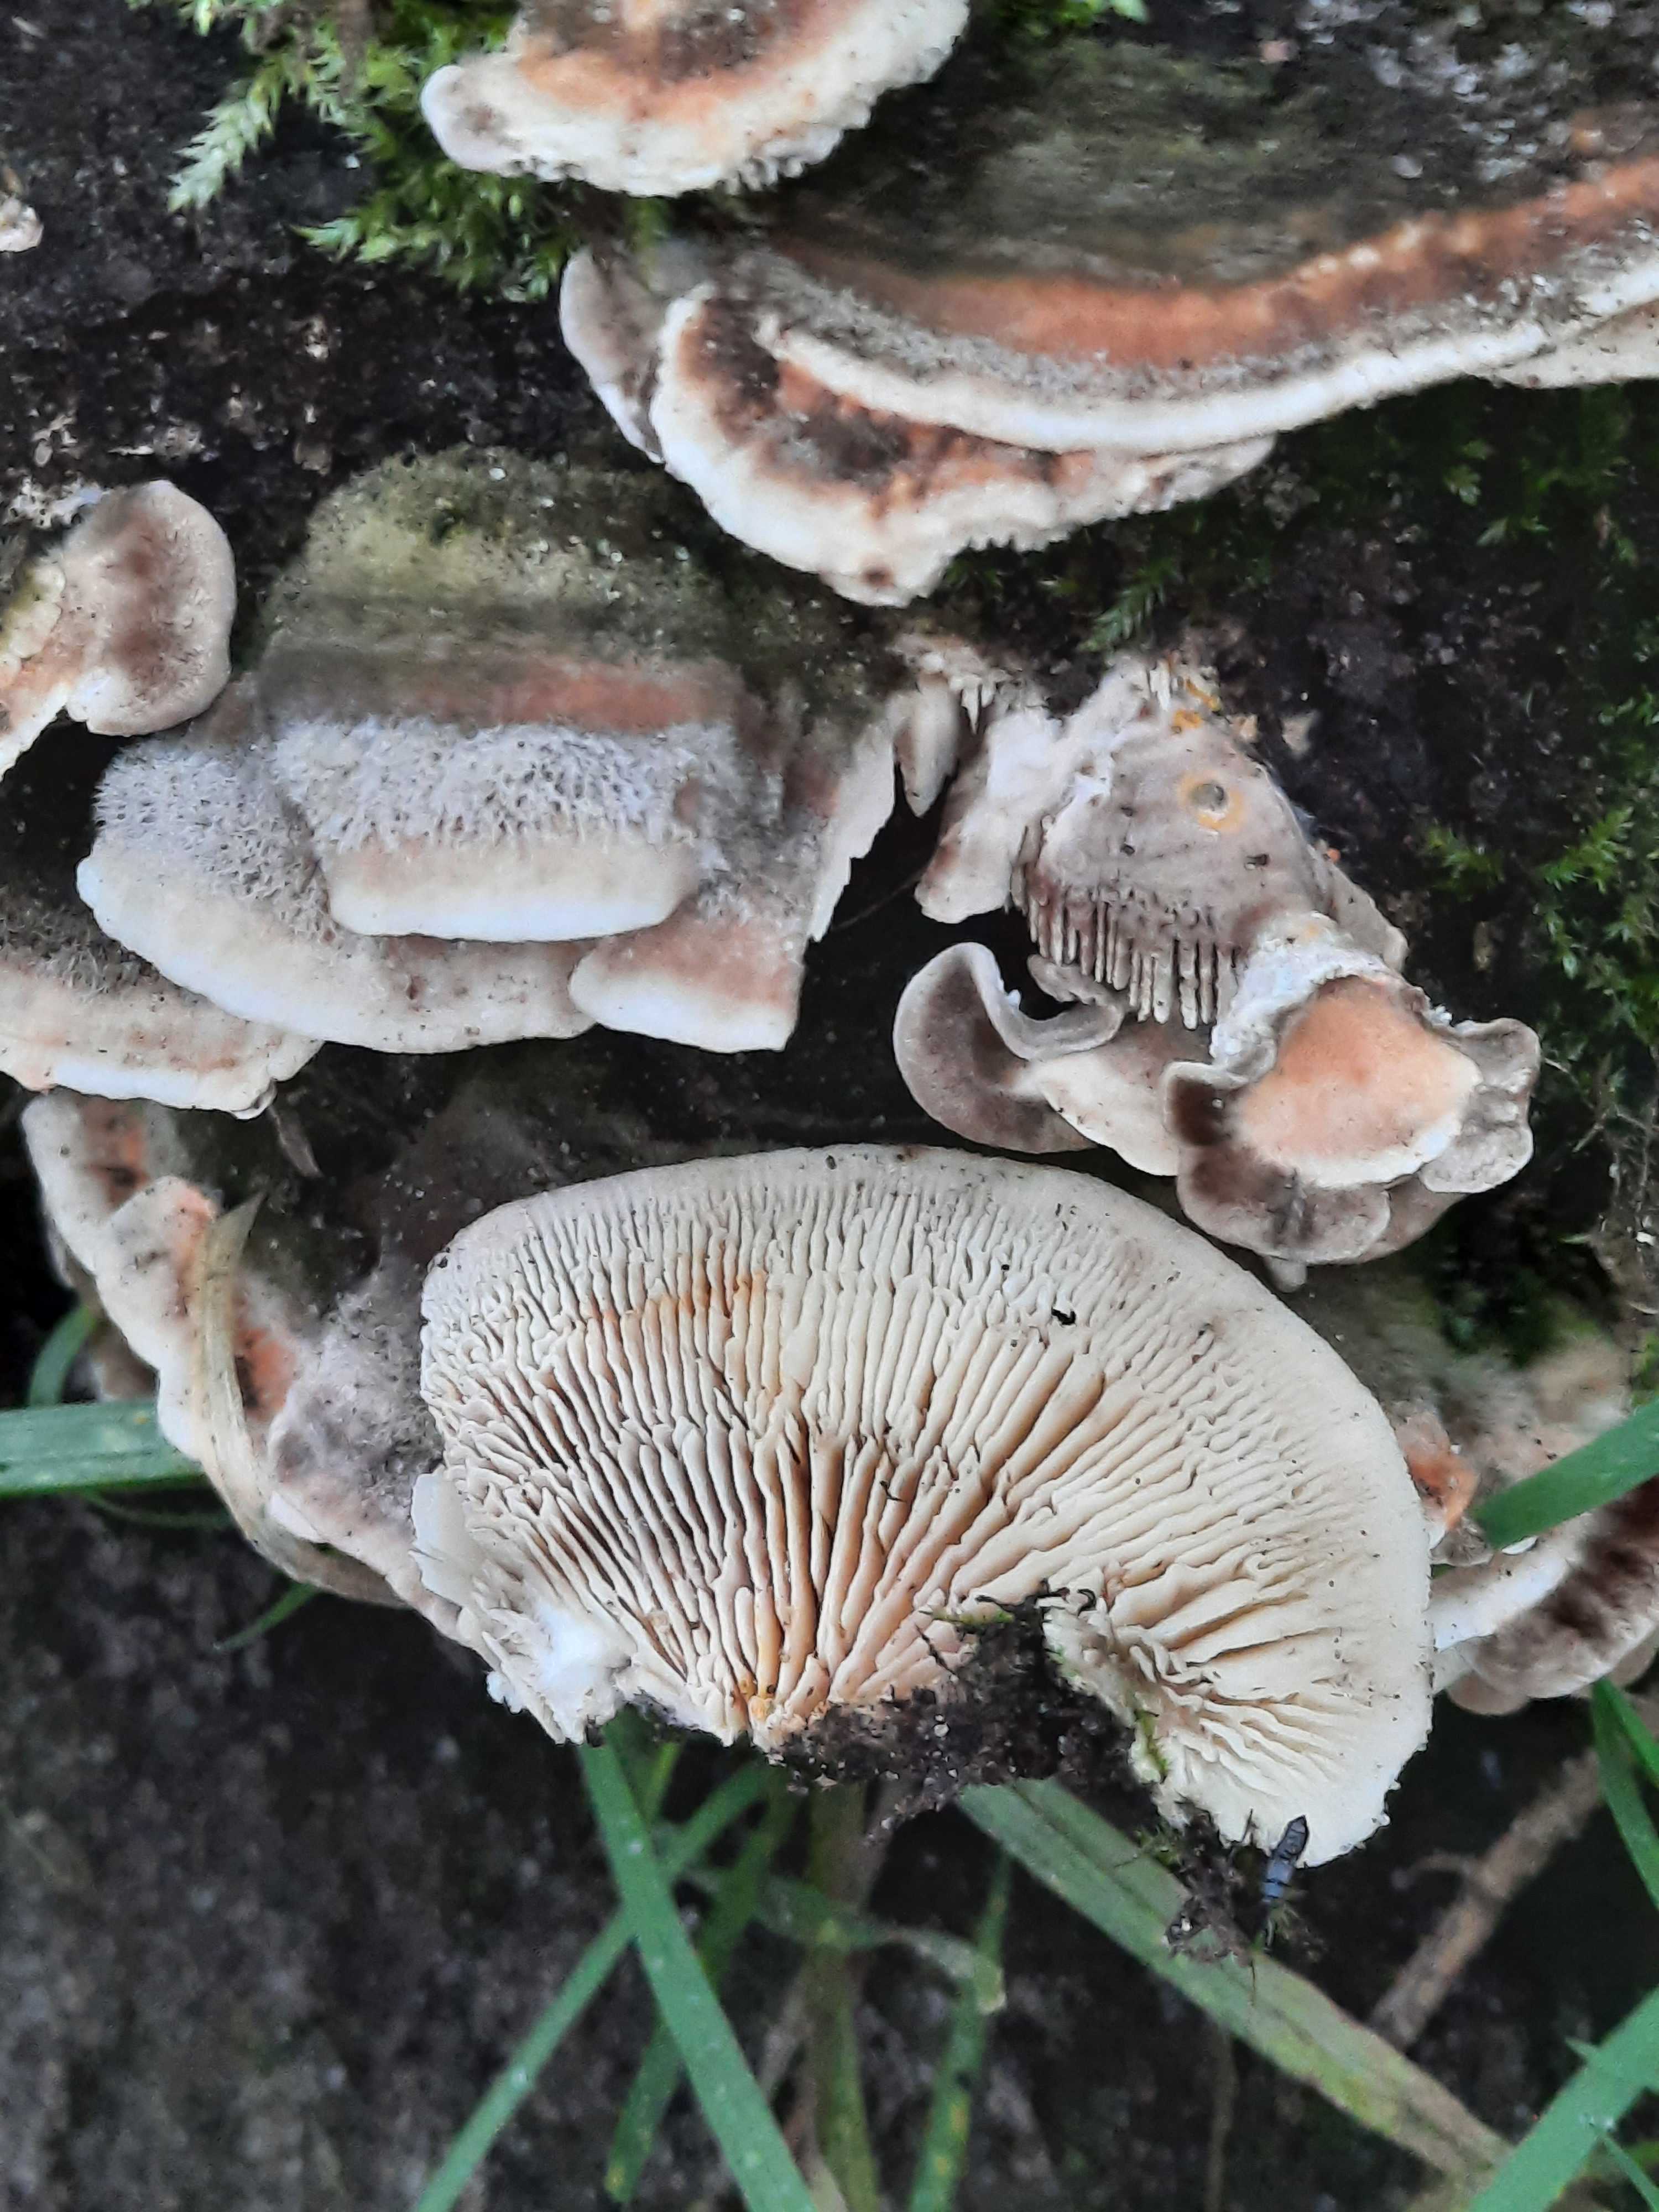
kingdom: Fungi
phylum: Basidiomycota
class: Agaricomycetes
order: Polyporales
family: Polyporaceae
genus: Lenzites
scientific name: Lenzites betulinus
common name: birke-læderporesvamp
